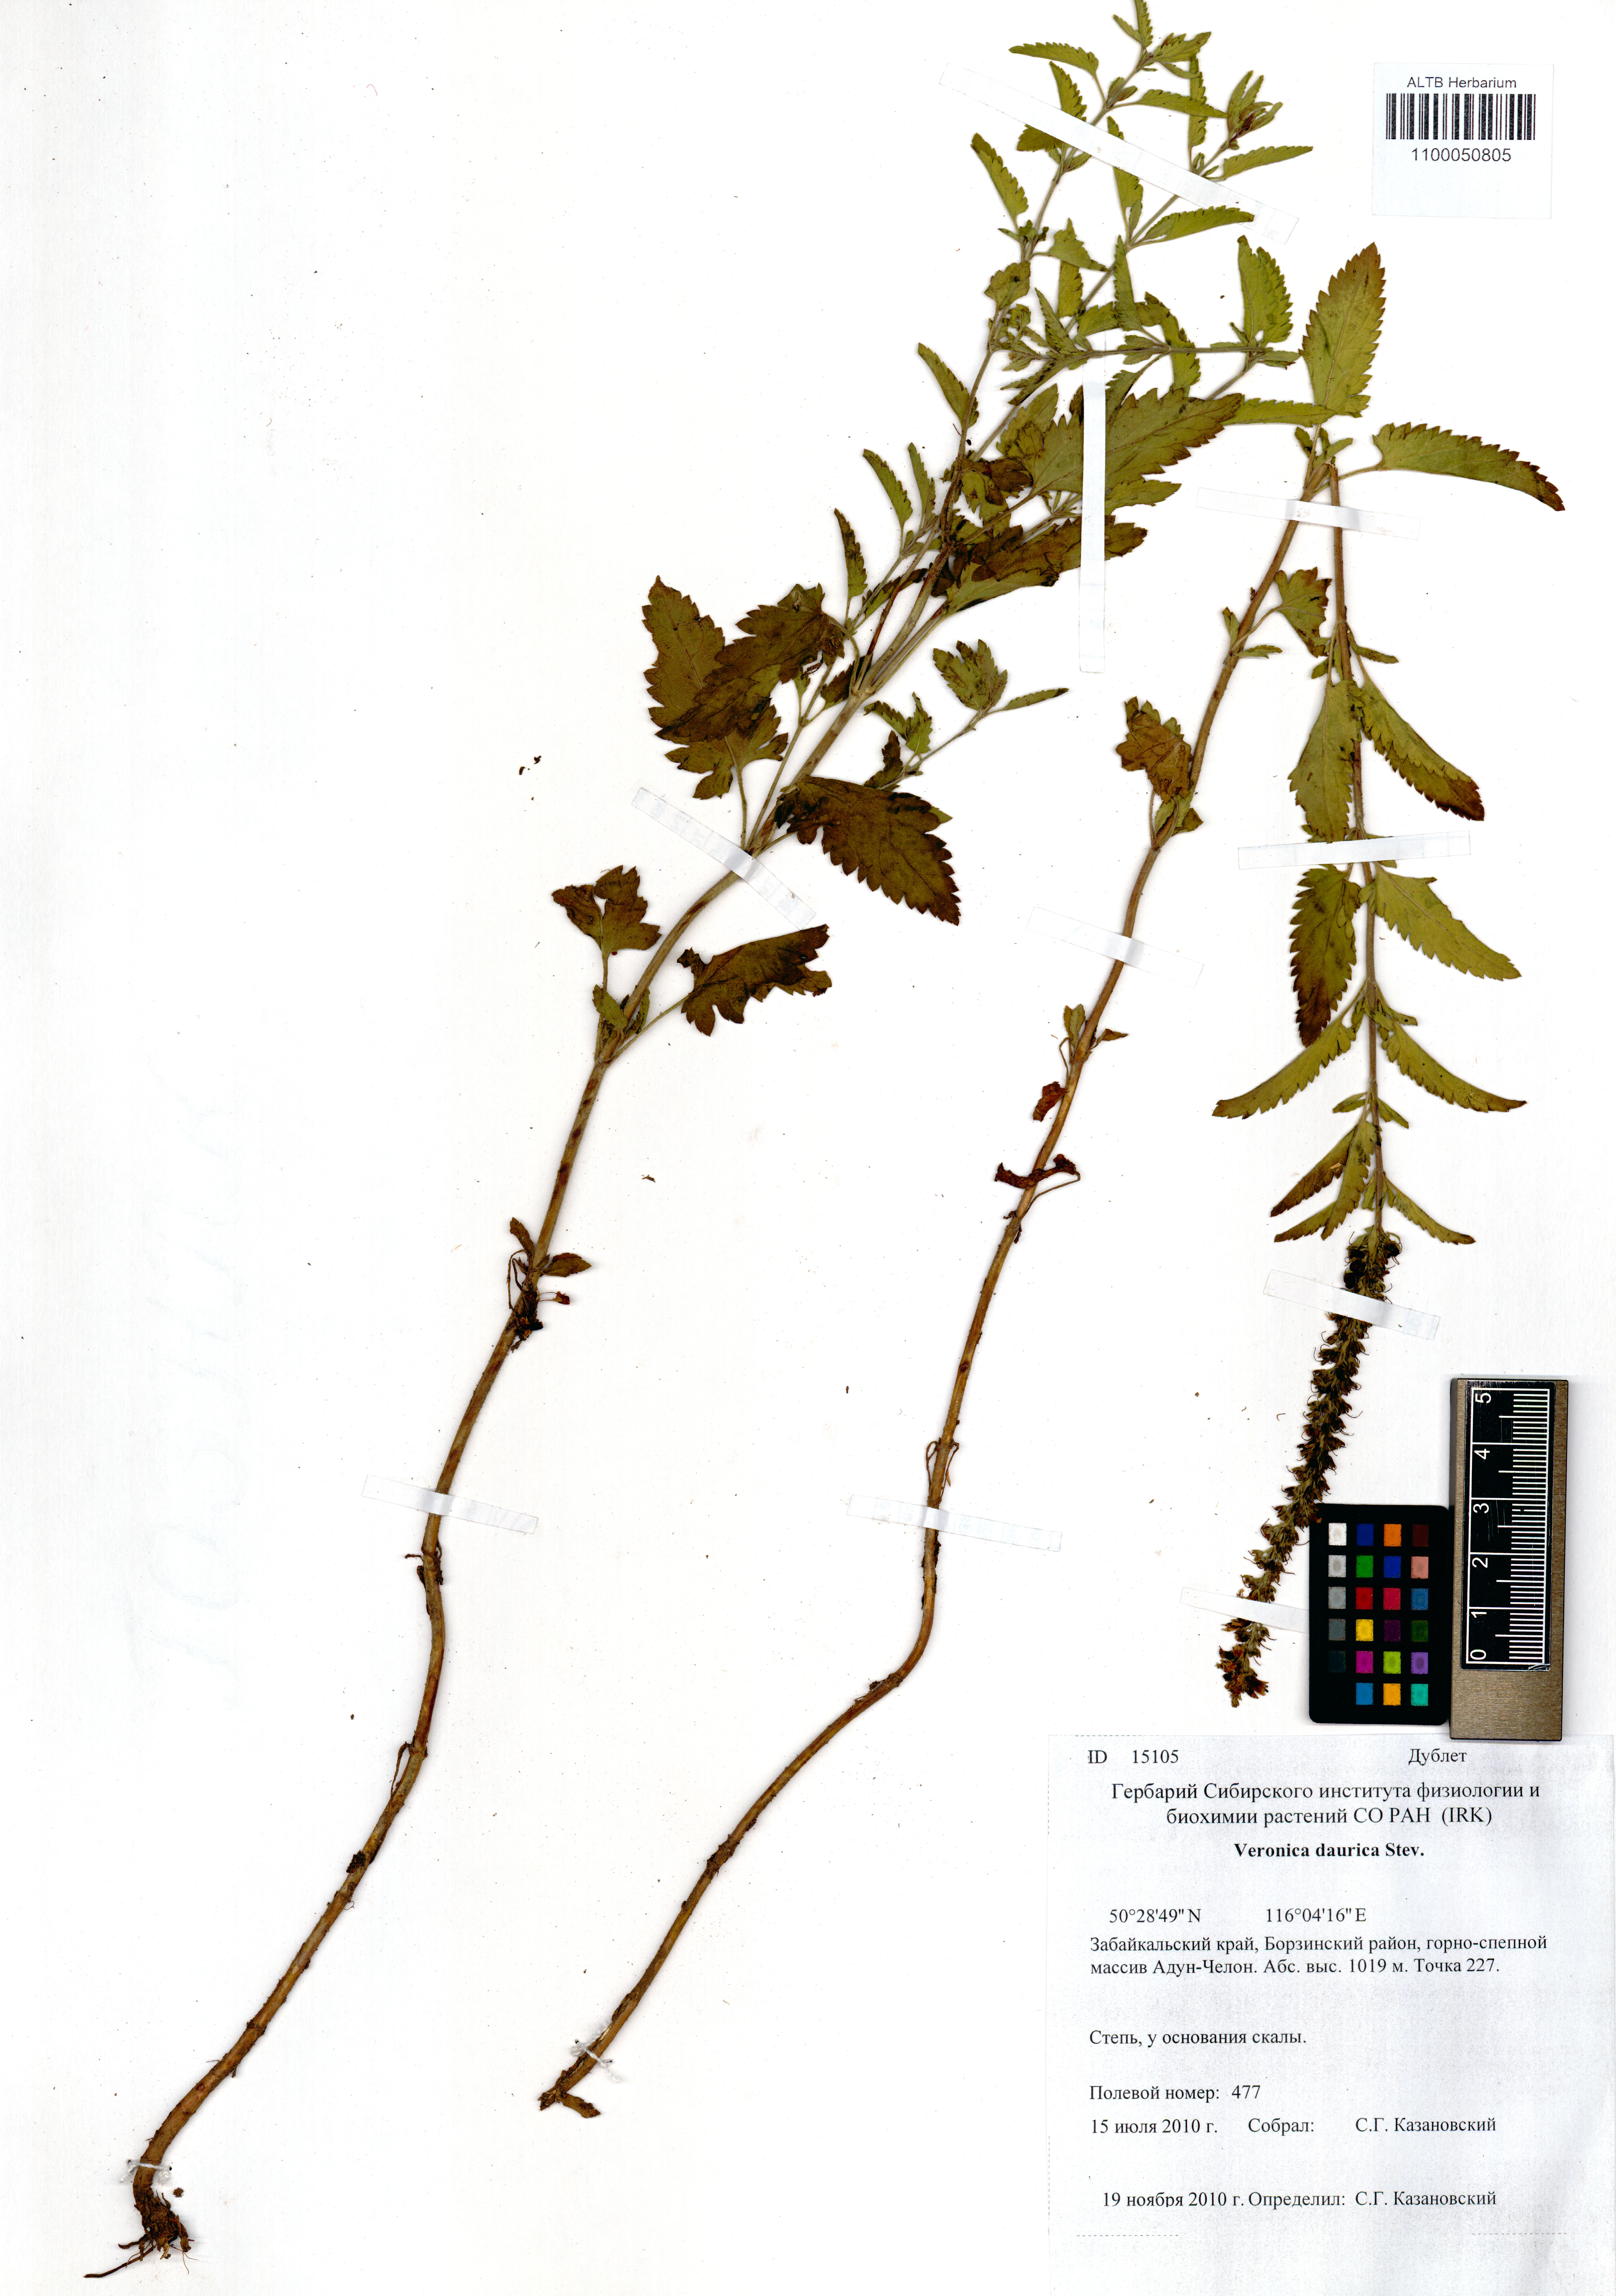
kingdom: Plantae
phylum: Tracheophyta
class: Magnoliopsida
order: Lamiales
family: Plantaginaceae
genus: Veronica
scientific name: Veronica daurica
